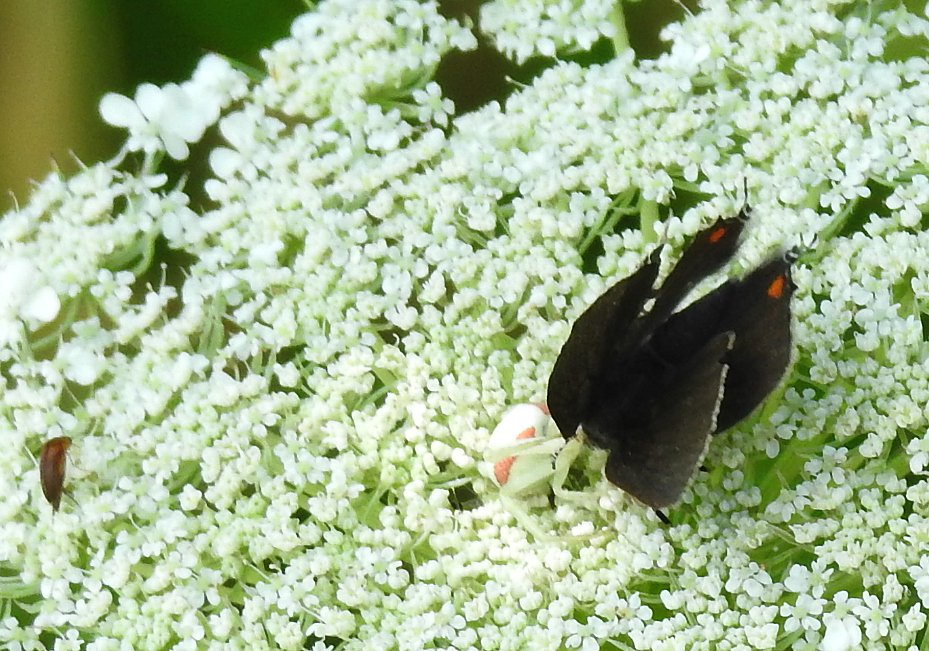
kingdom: Animalia
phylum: Arthropoda
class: Insecta
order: Lepidoptera
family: Lycaenidae
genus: Strymon
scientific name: Strymon acadica
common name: Acadian Hairstreak
